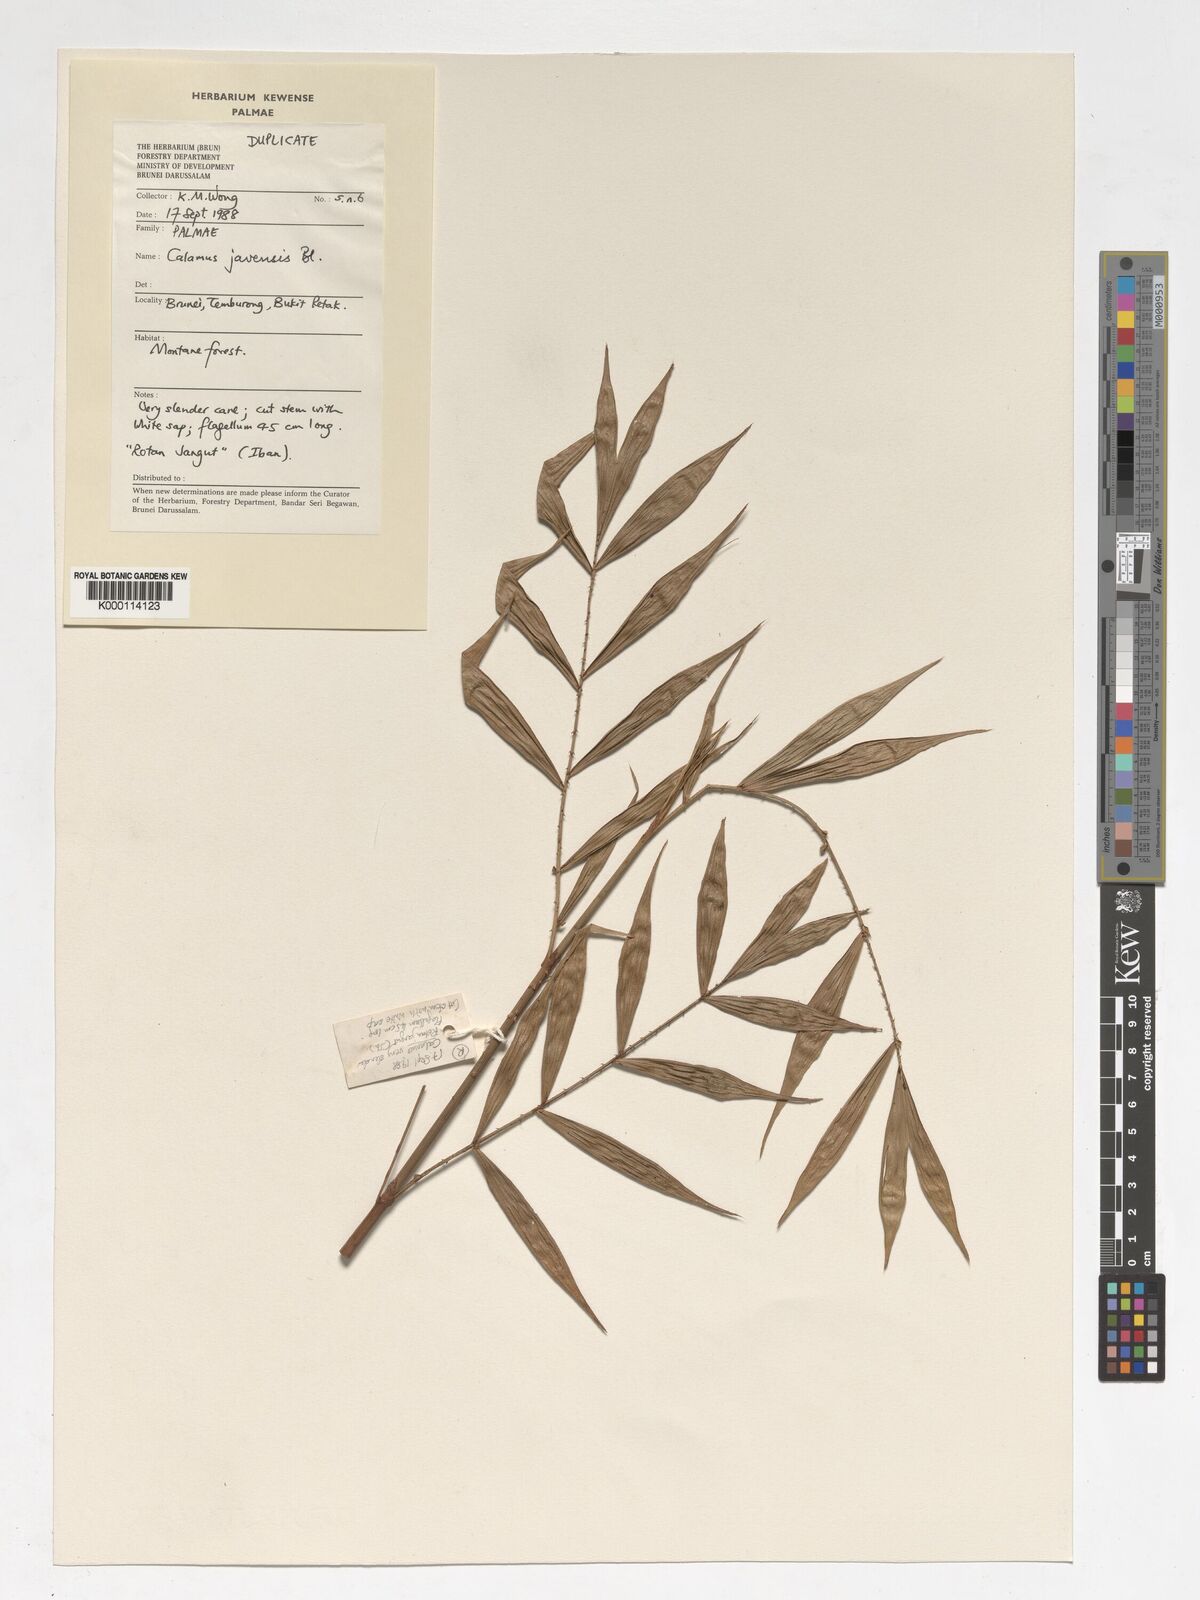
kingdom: Plantae
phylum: Tracheophyta
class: Liliopsida
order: Arecales
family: Arecaceae
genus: Calamus
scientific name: Calamus javensis
